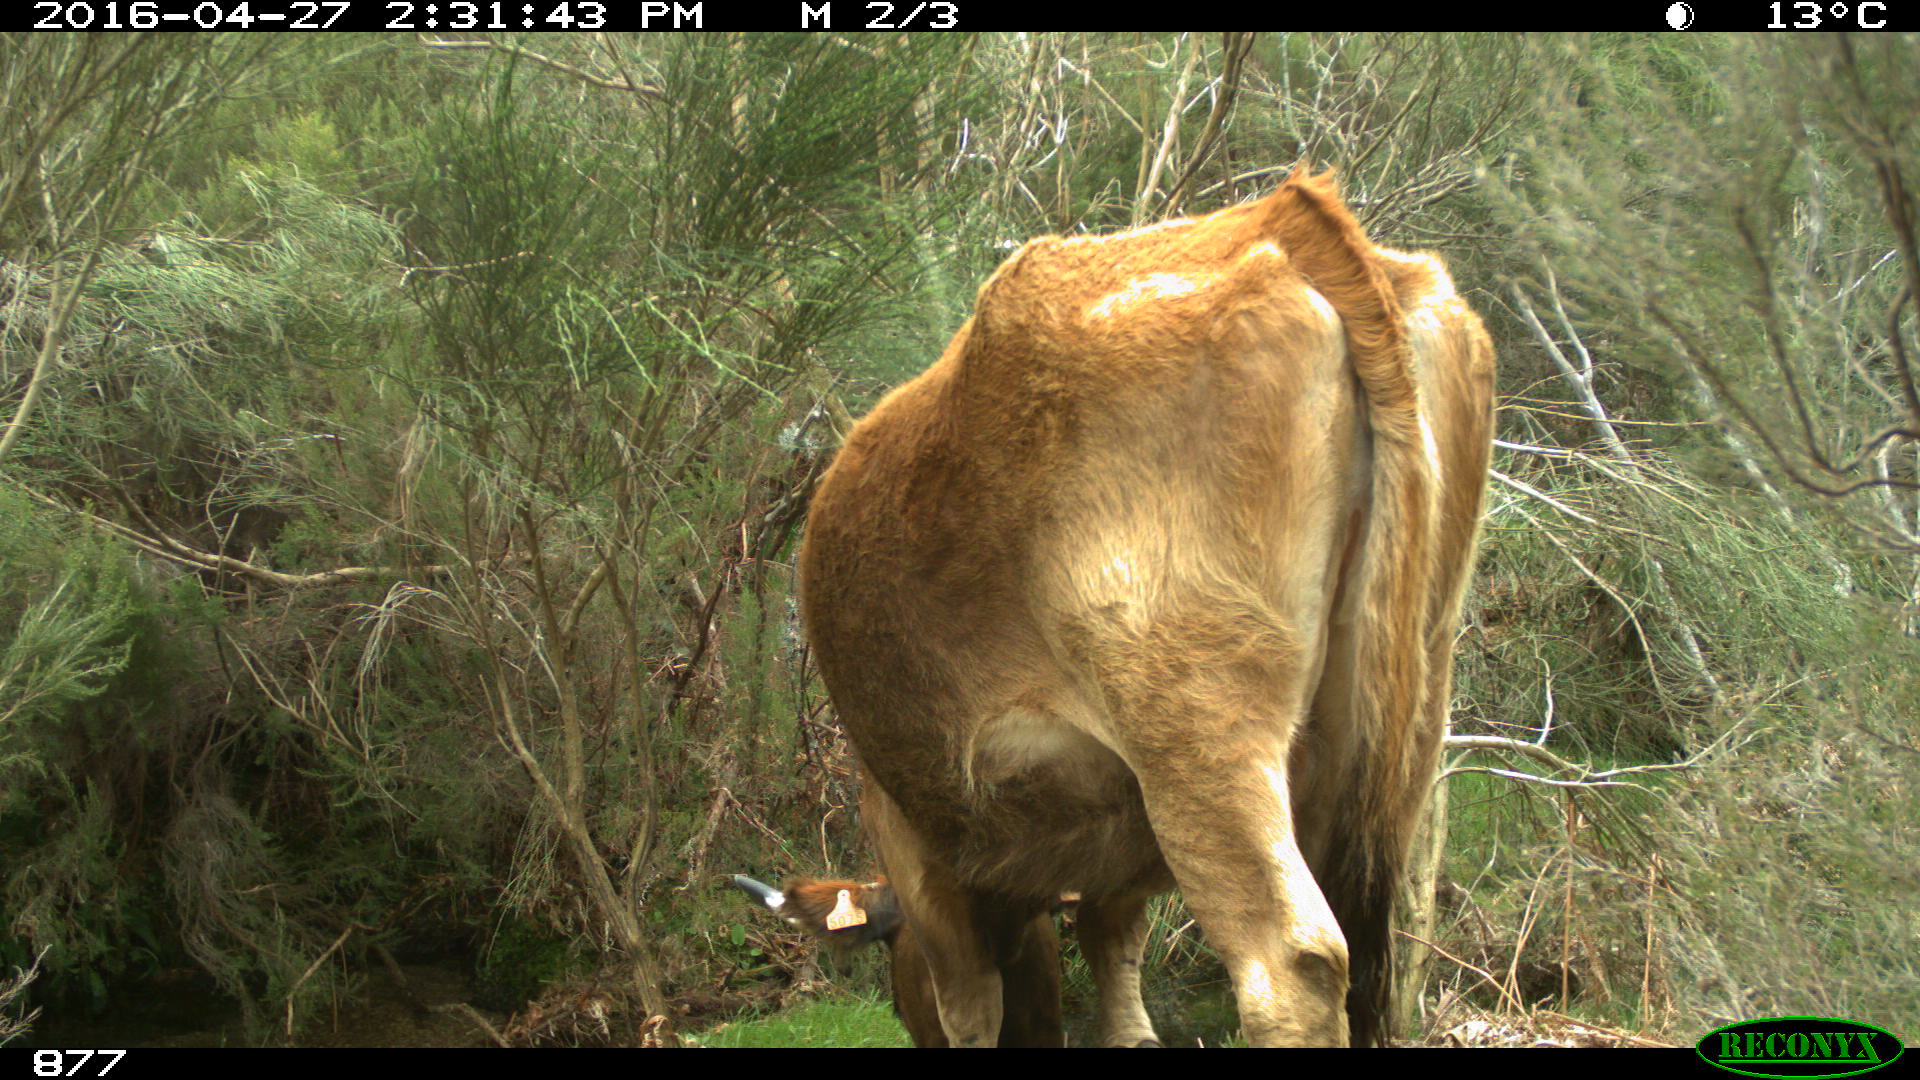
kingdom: Animalia
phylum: Chordata
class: Mammalia
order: Artiodactyla
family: Bovidae
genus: Bos
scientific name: Bos taurus
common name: Domesticated cattle
